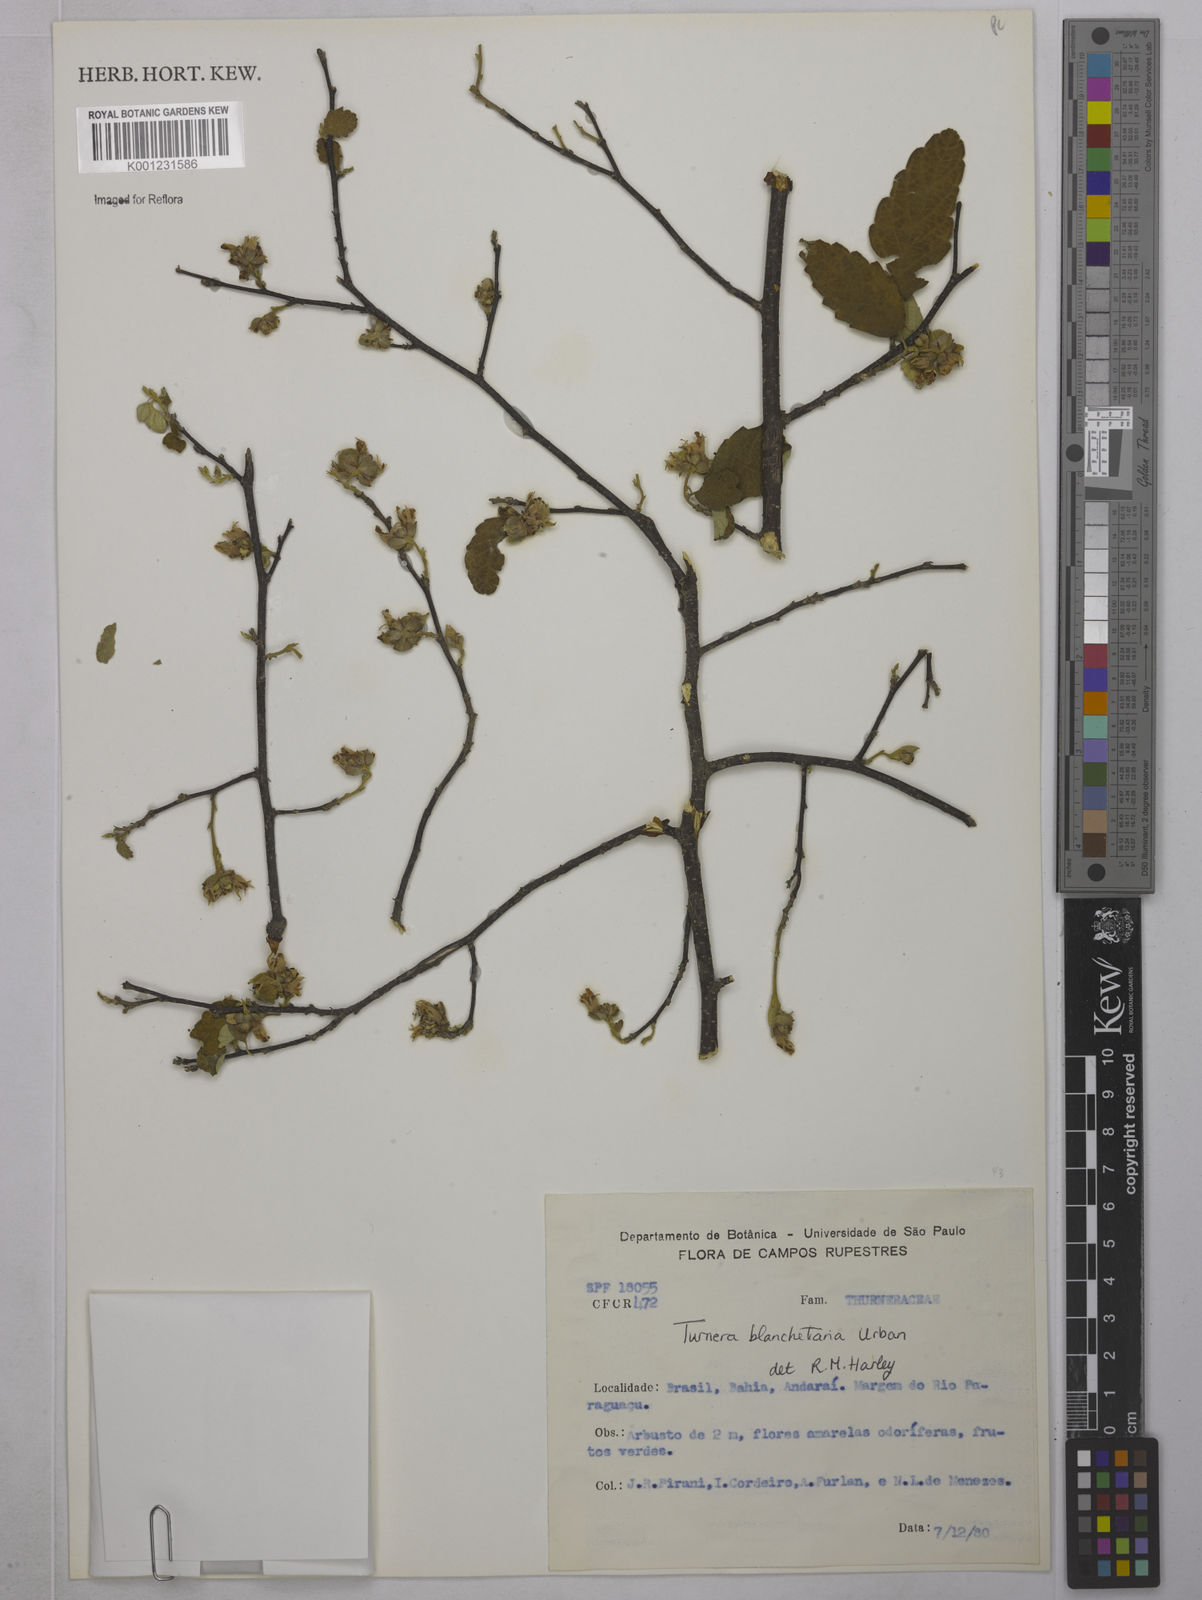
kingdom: Plantae
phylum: Tracheophyta
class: Magnoliopsida
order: Malpighiales
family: Turneraceae
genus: Turnera
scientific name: Turnera blanchetiana
